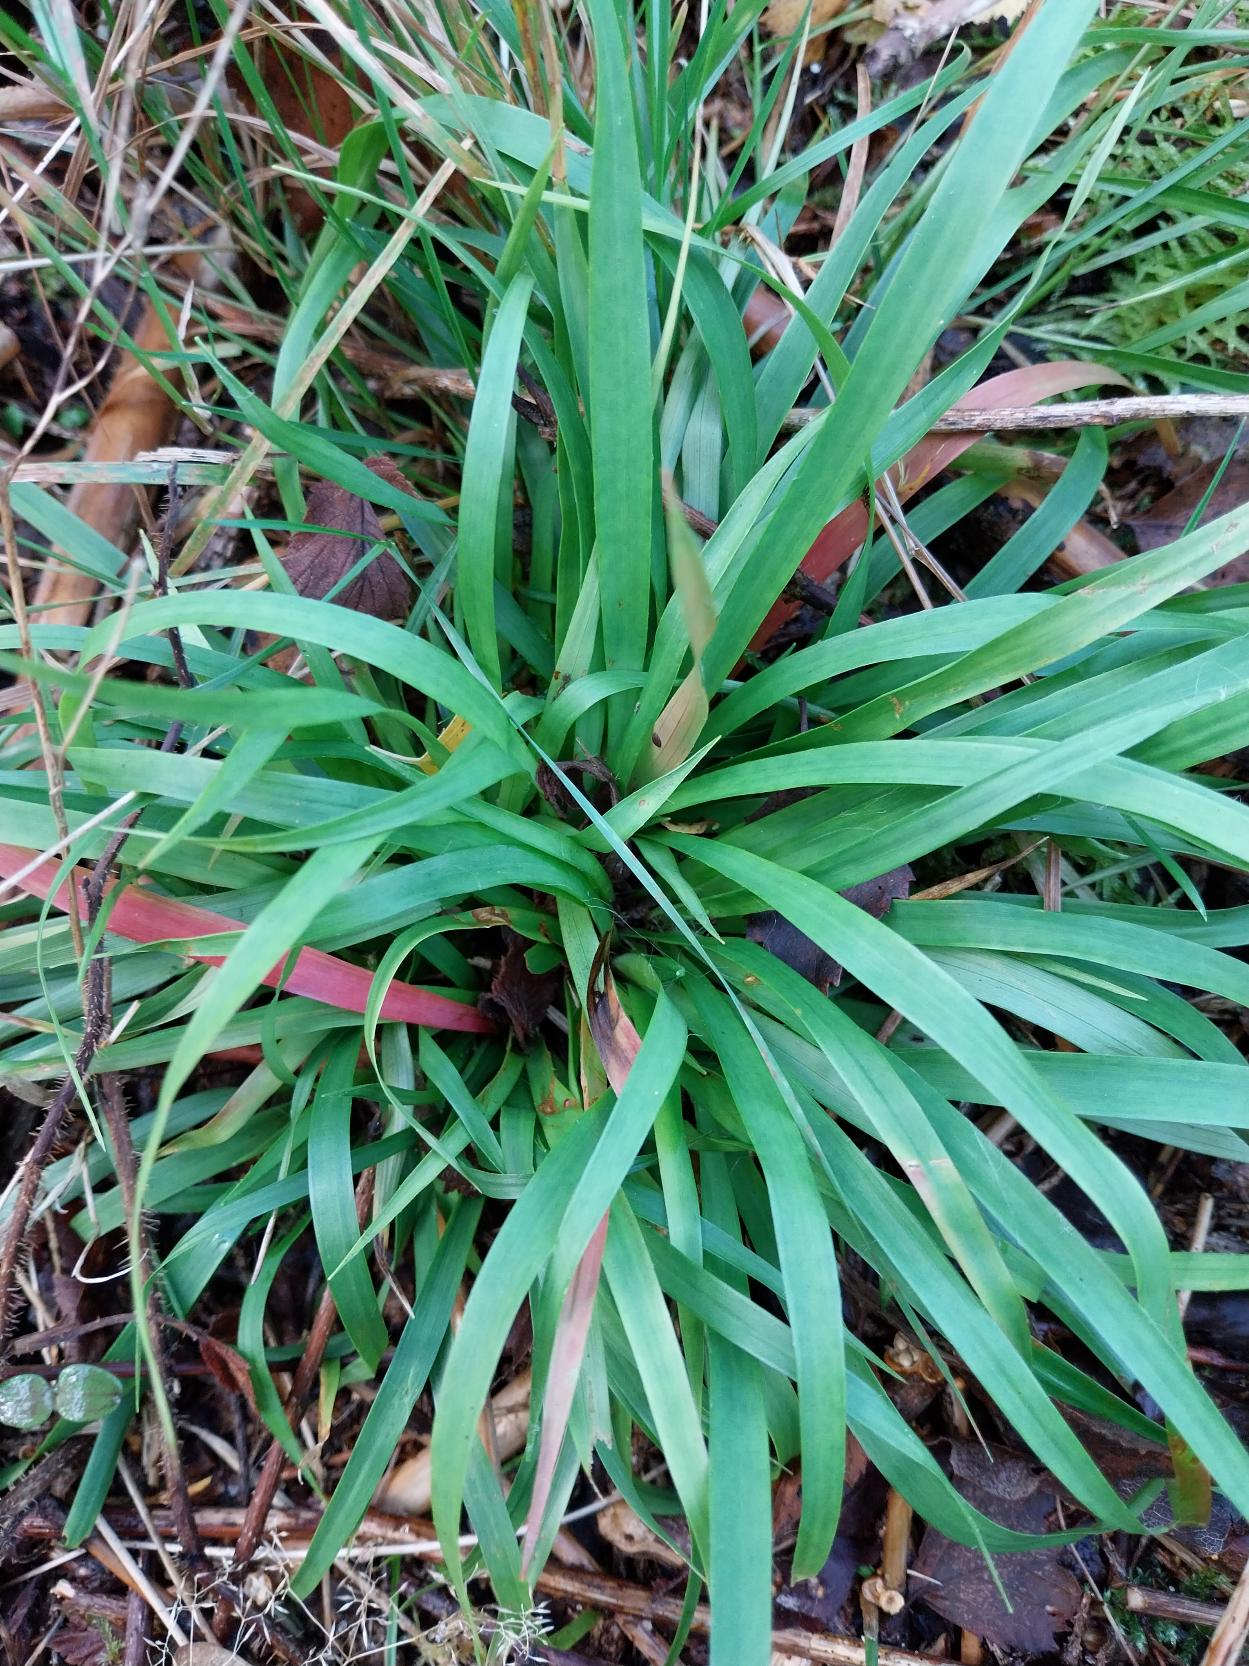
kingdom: Plantae
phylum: Tracheophyta
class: Liliopsida
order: Poales
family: Juncaceae
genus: Luzula
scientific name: Luzula pilosa
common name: Håret frytle
